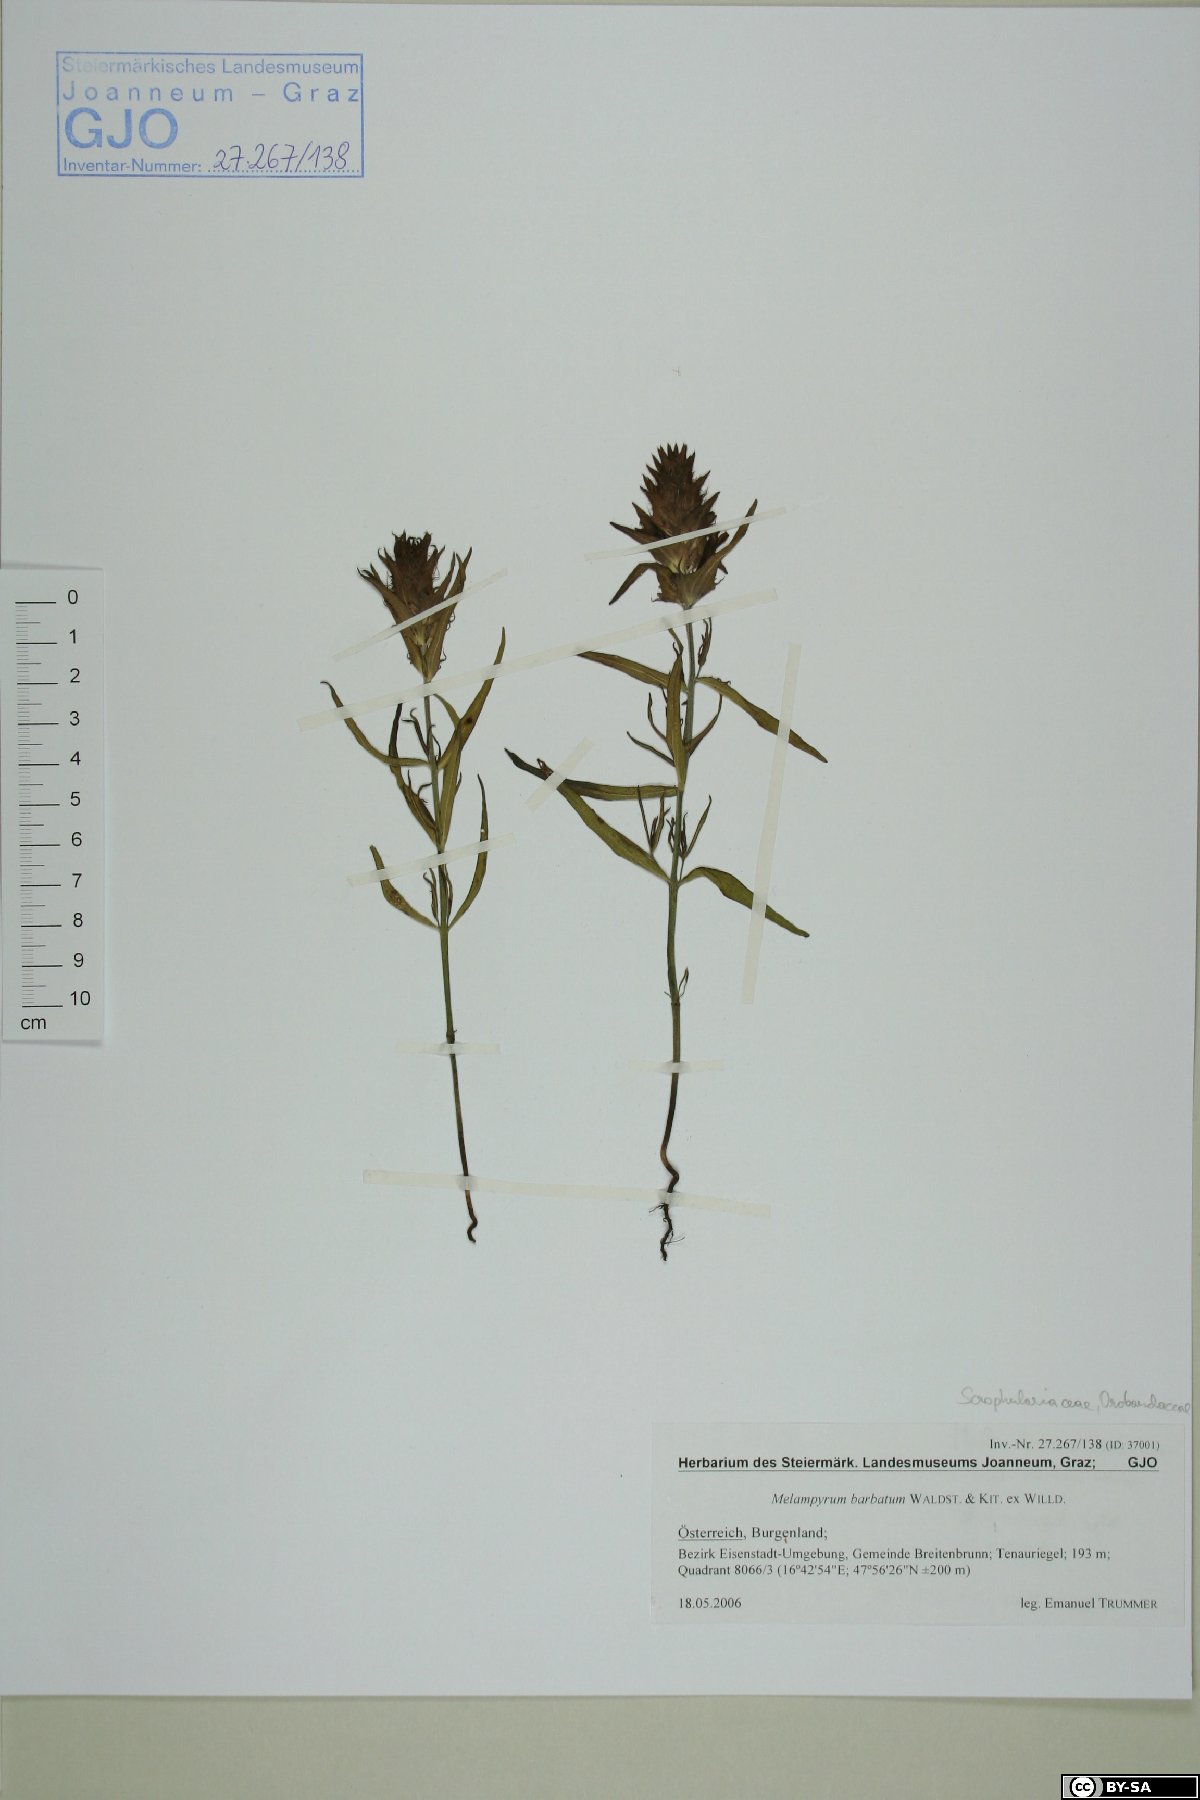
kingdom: Plantae
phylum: Tracheophyta
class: Magnoliopsida
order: Lamiales
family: Orobanchaceae
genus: Melampyrum
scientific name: Melampyrum barbatum
